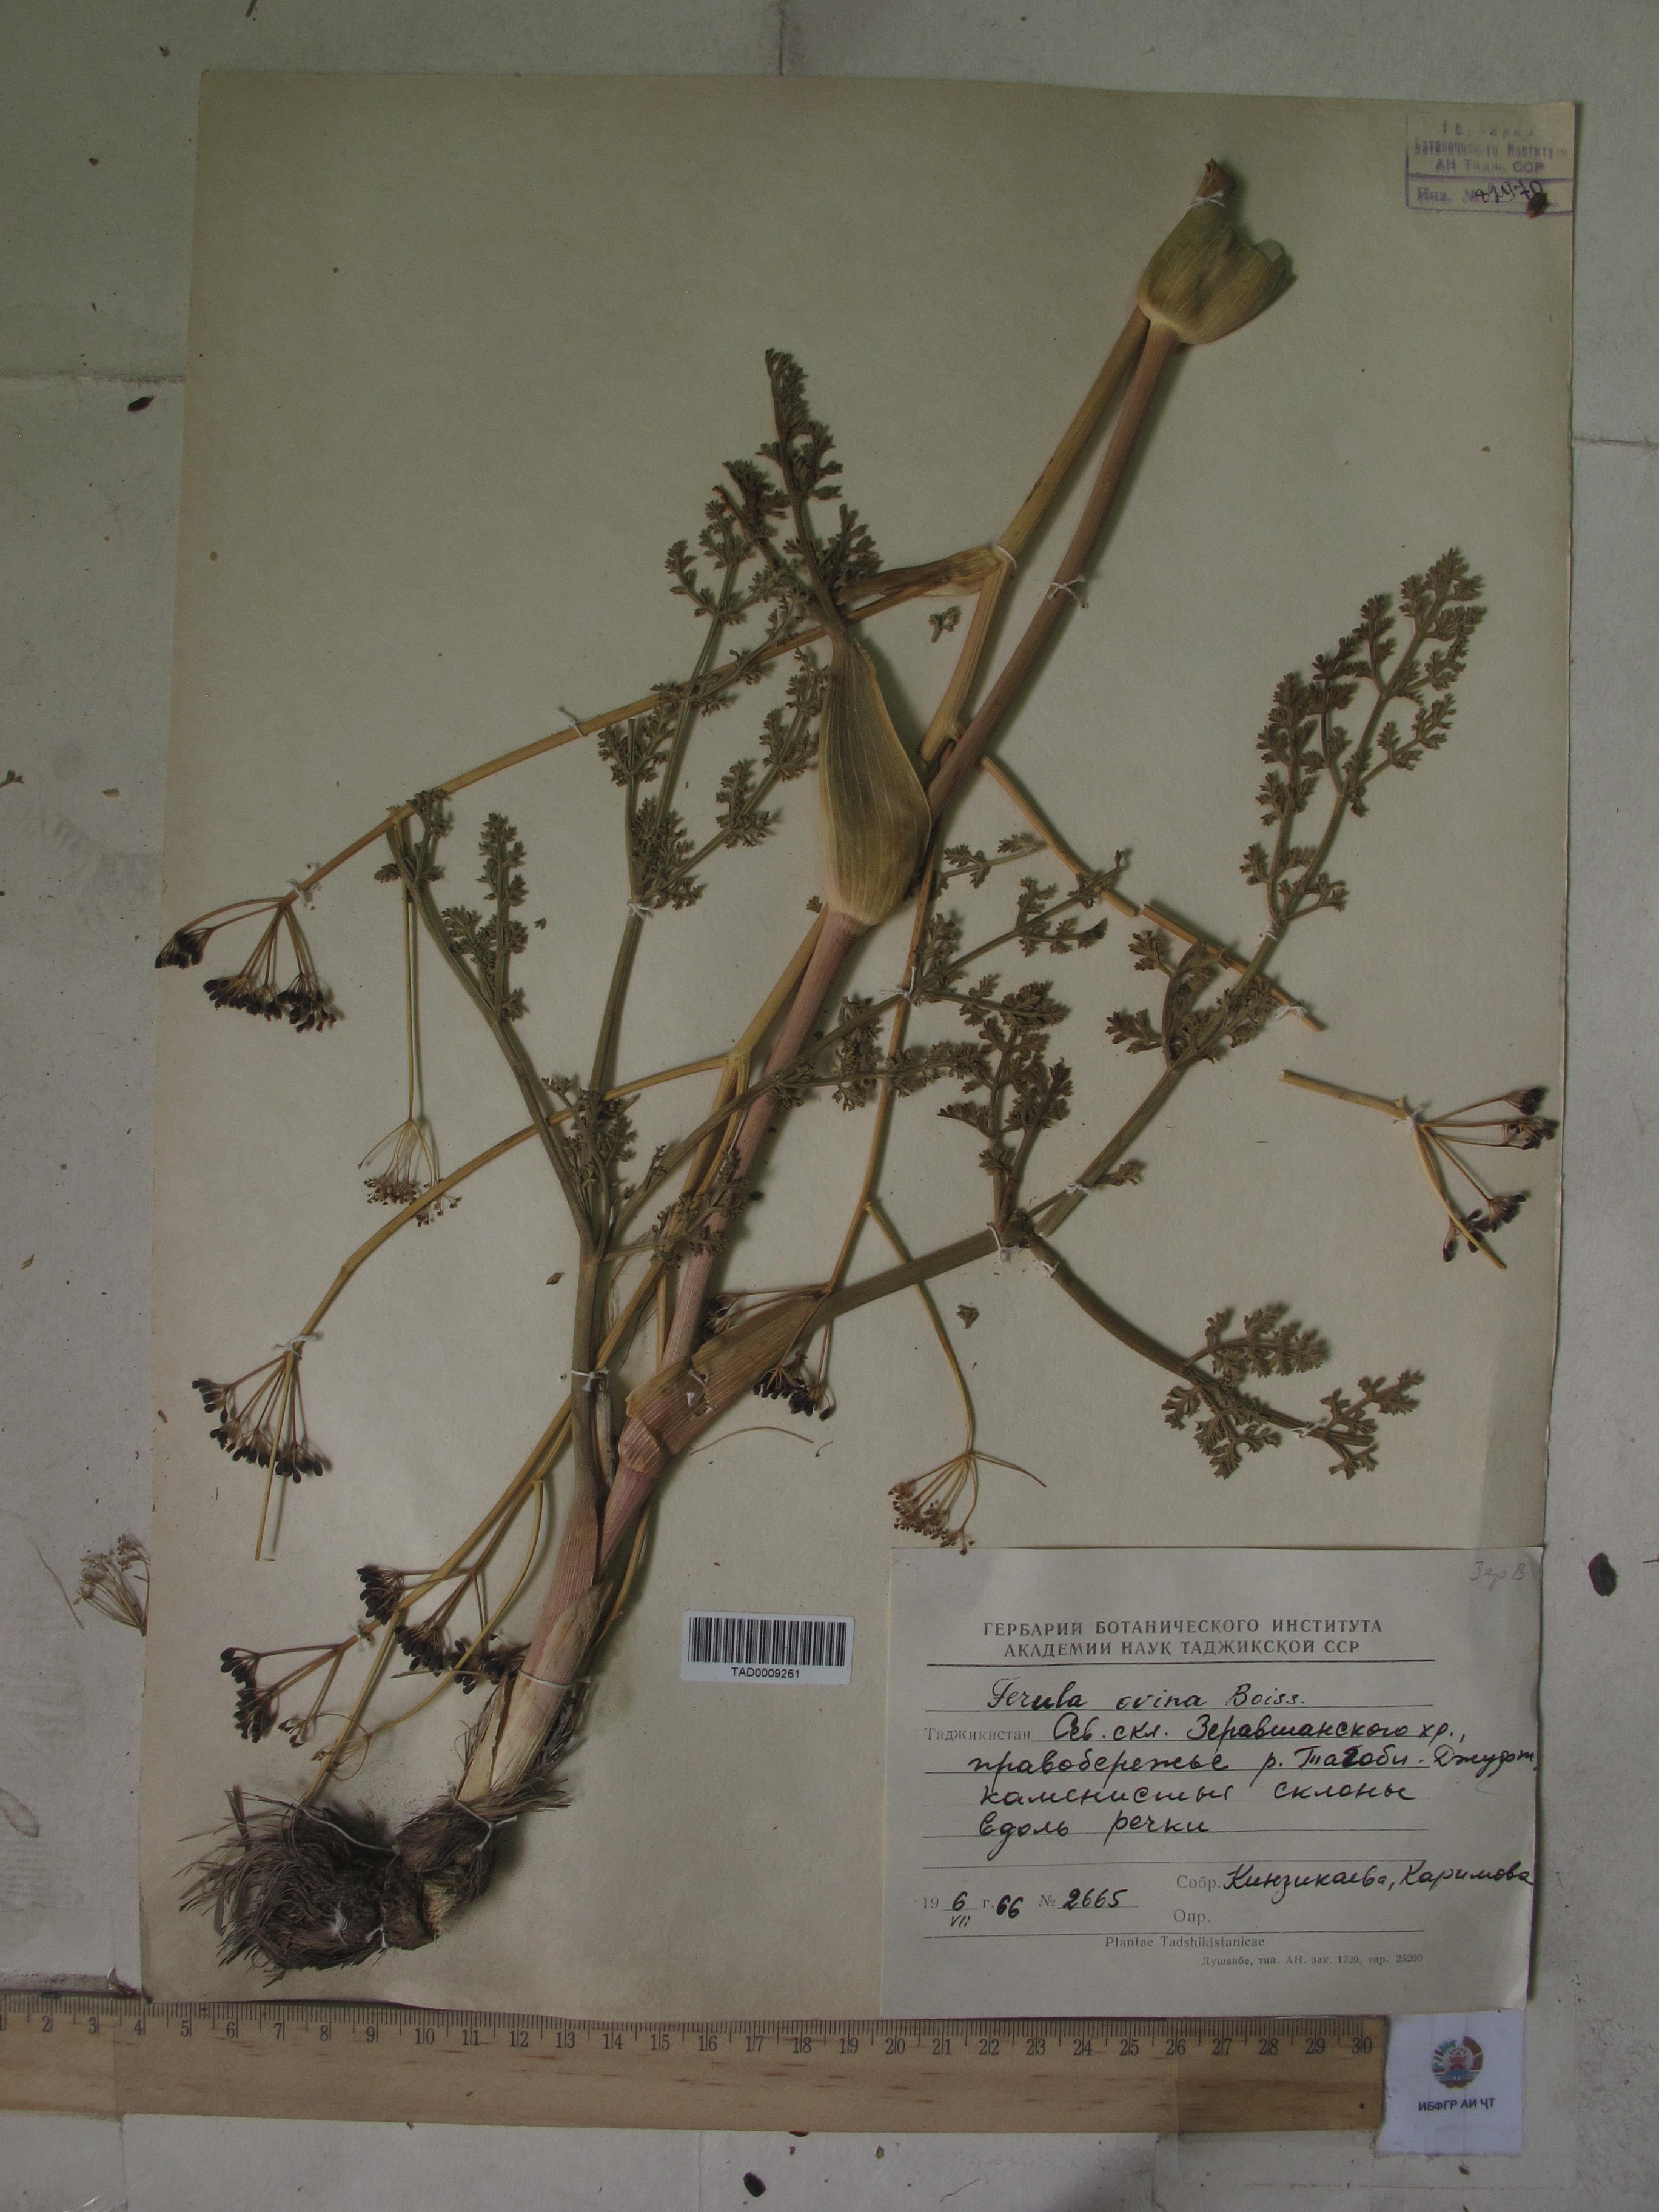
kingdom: Plantae
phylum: Tracheophyta
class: Magnoliopsida
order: Apiales
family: Apiaceae
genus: Ferula
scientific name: Ferula ovina
